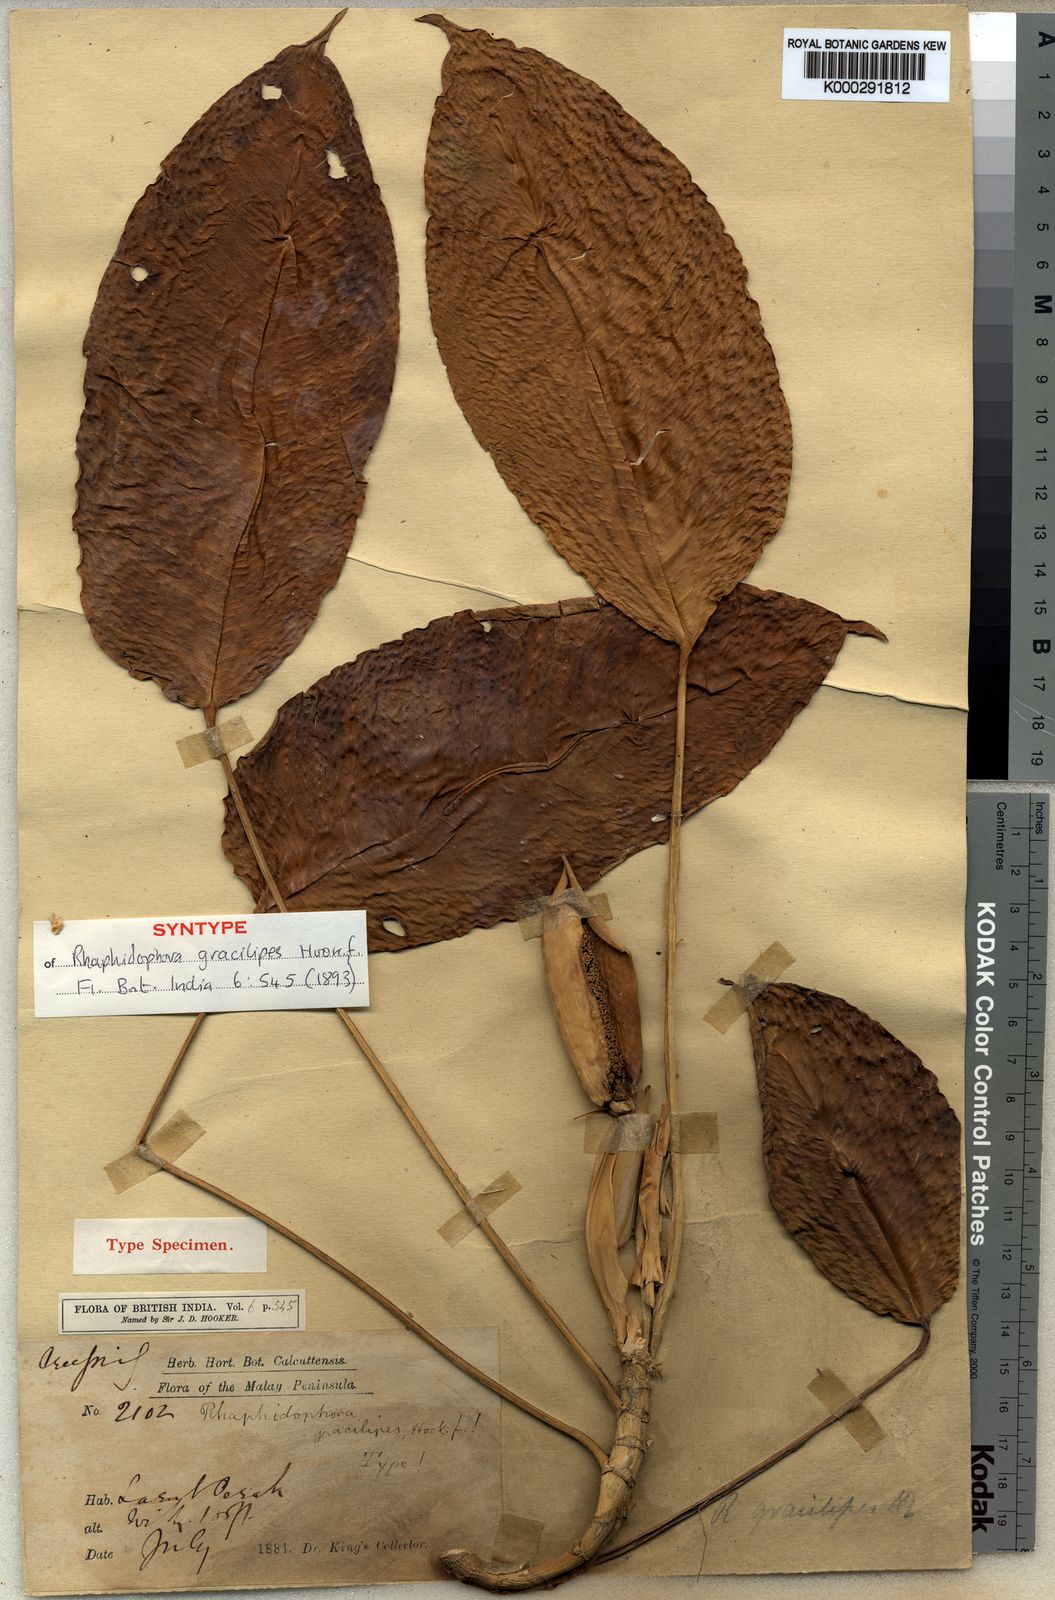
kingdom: Plantae
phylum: Tracheophyta
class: Liliopsida
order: Alismatales
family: Araceae
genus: Rhaphidophora
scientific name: Rhaphidophora puberula
